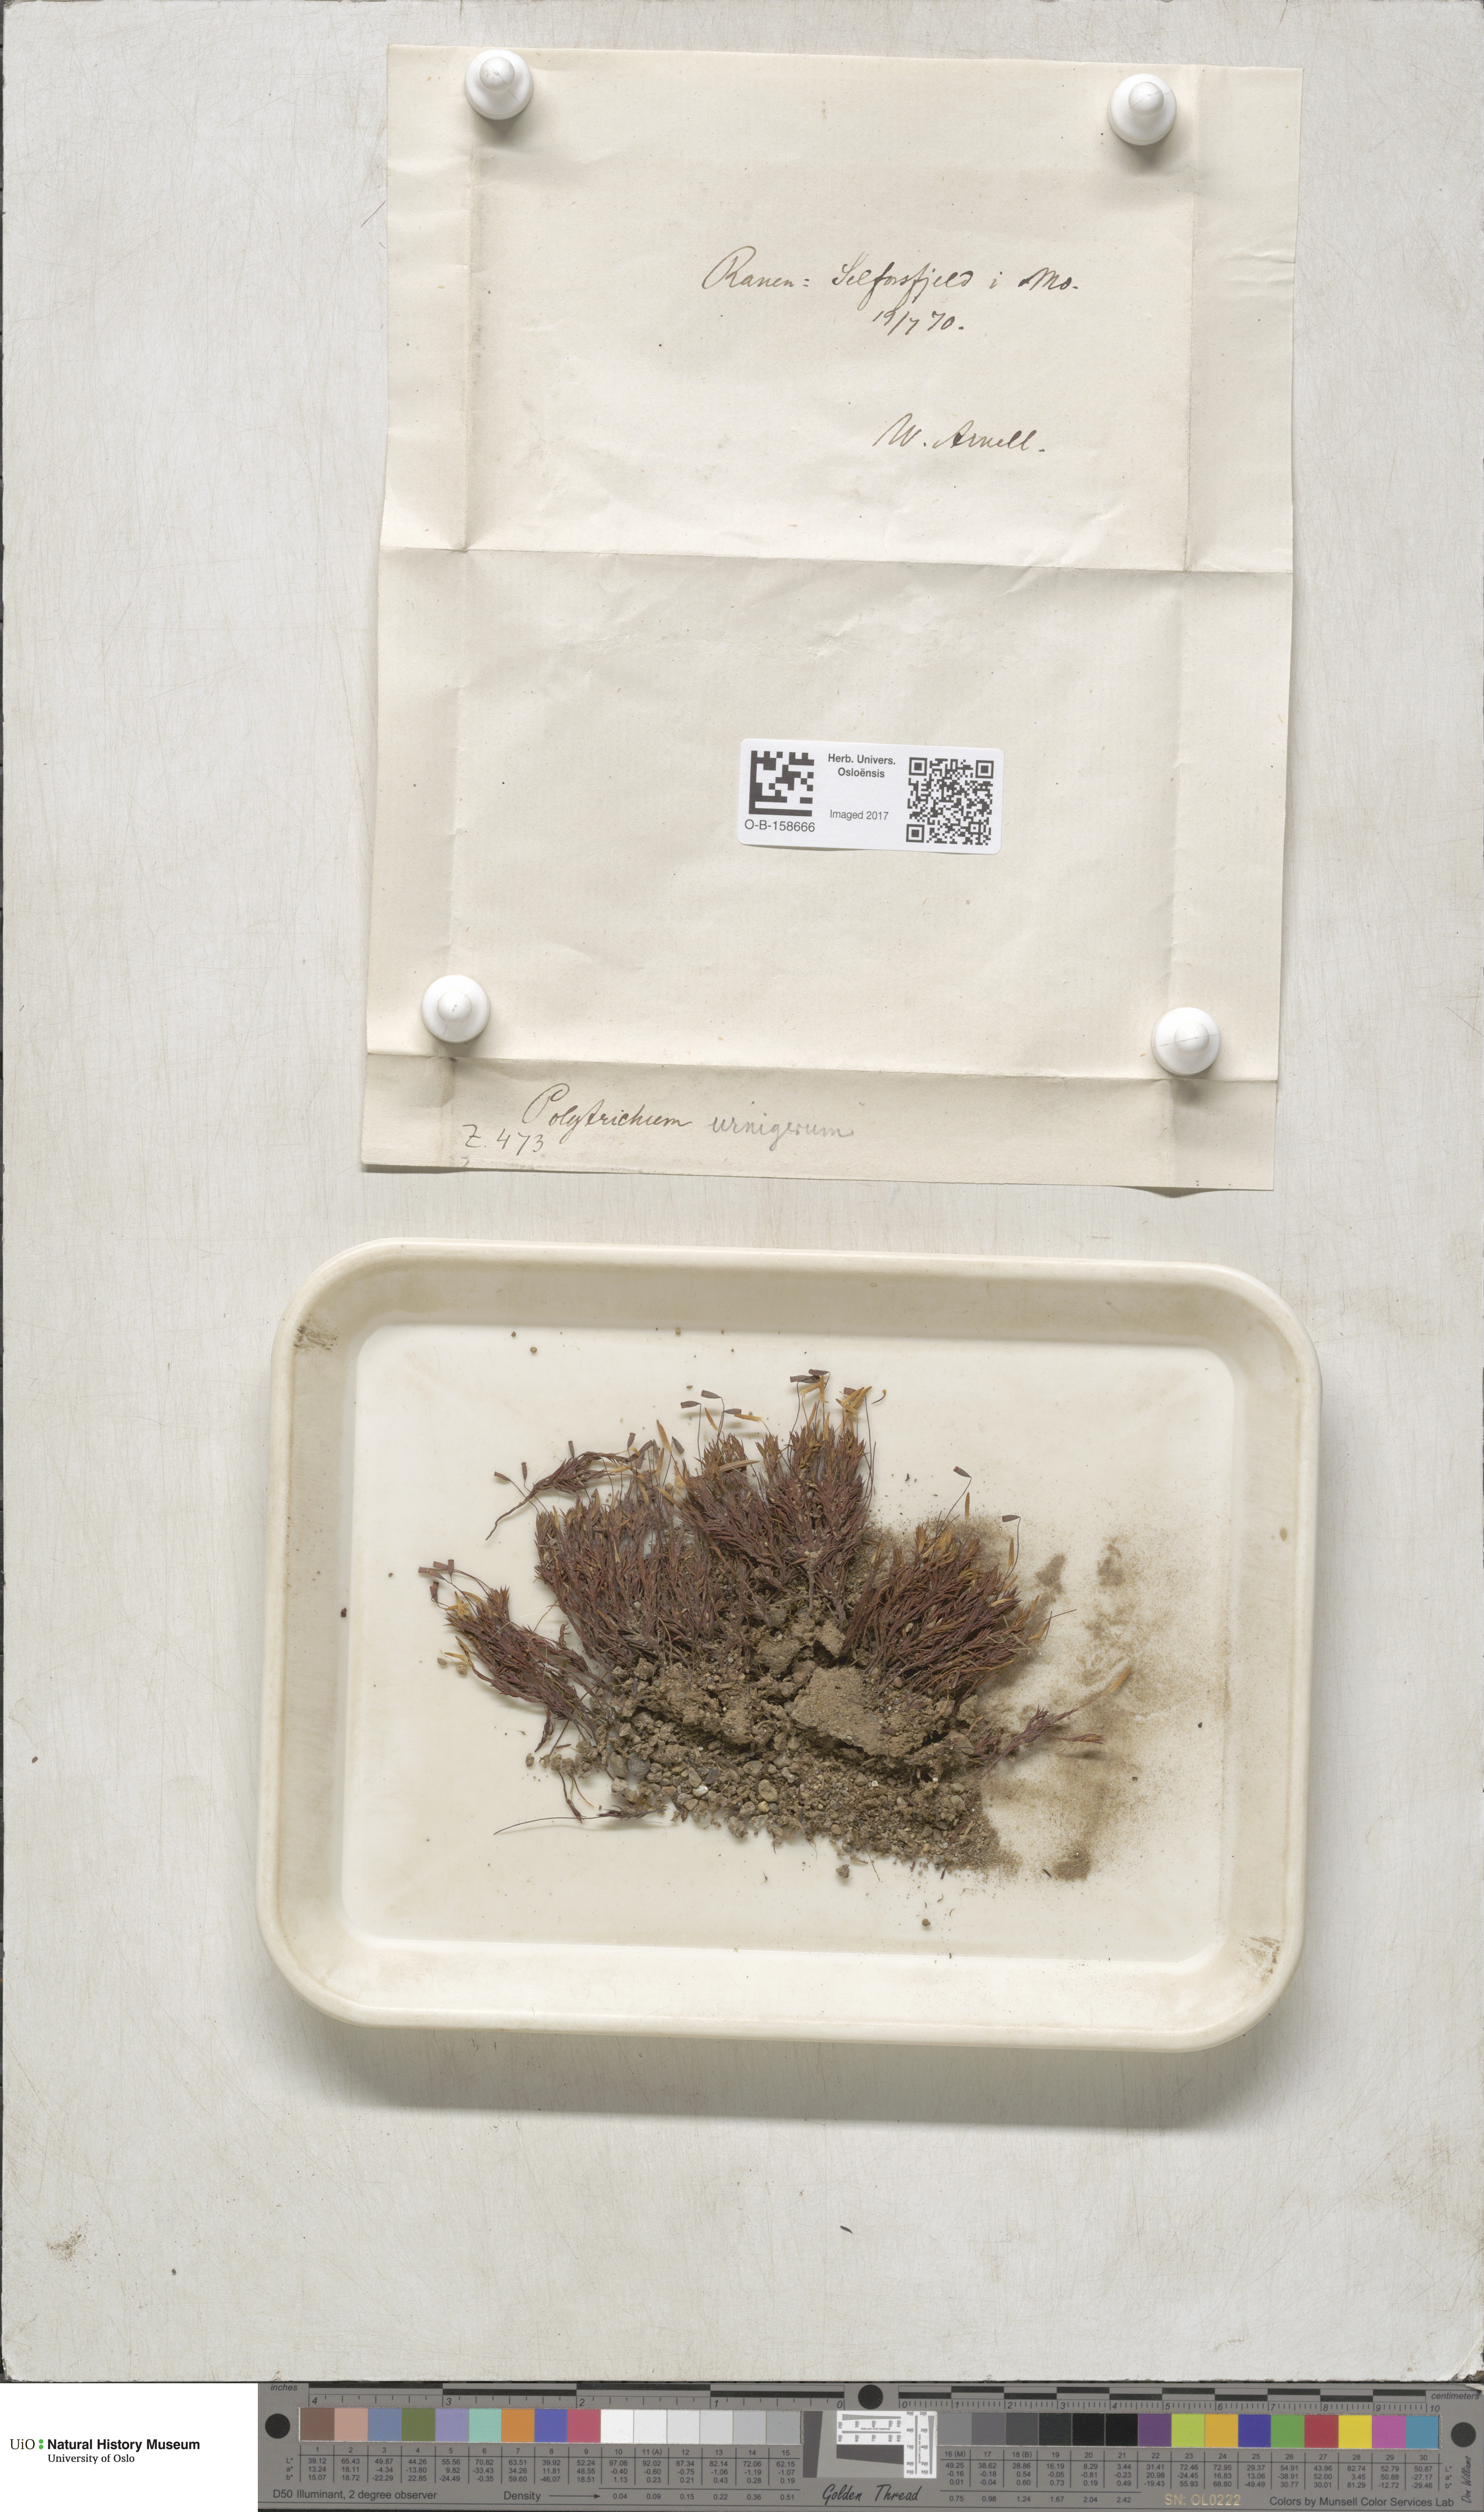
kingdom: Plantae
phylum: Bryophyta
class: Polytrichopsida
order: Polytrichales
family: Polytrichaceae
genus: Pogonatum
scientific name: Pogonatum urnigerum
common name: Urn hair moss
